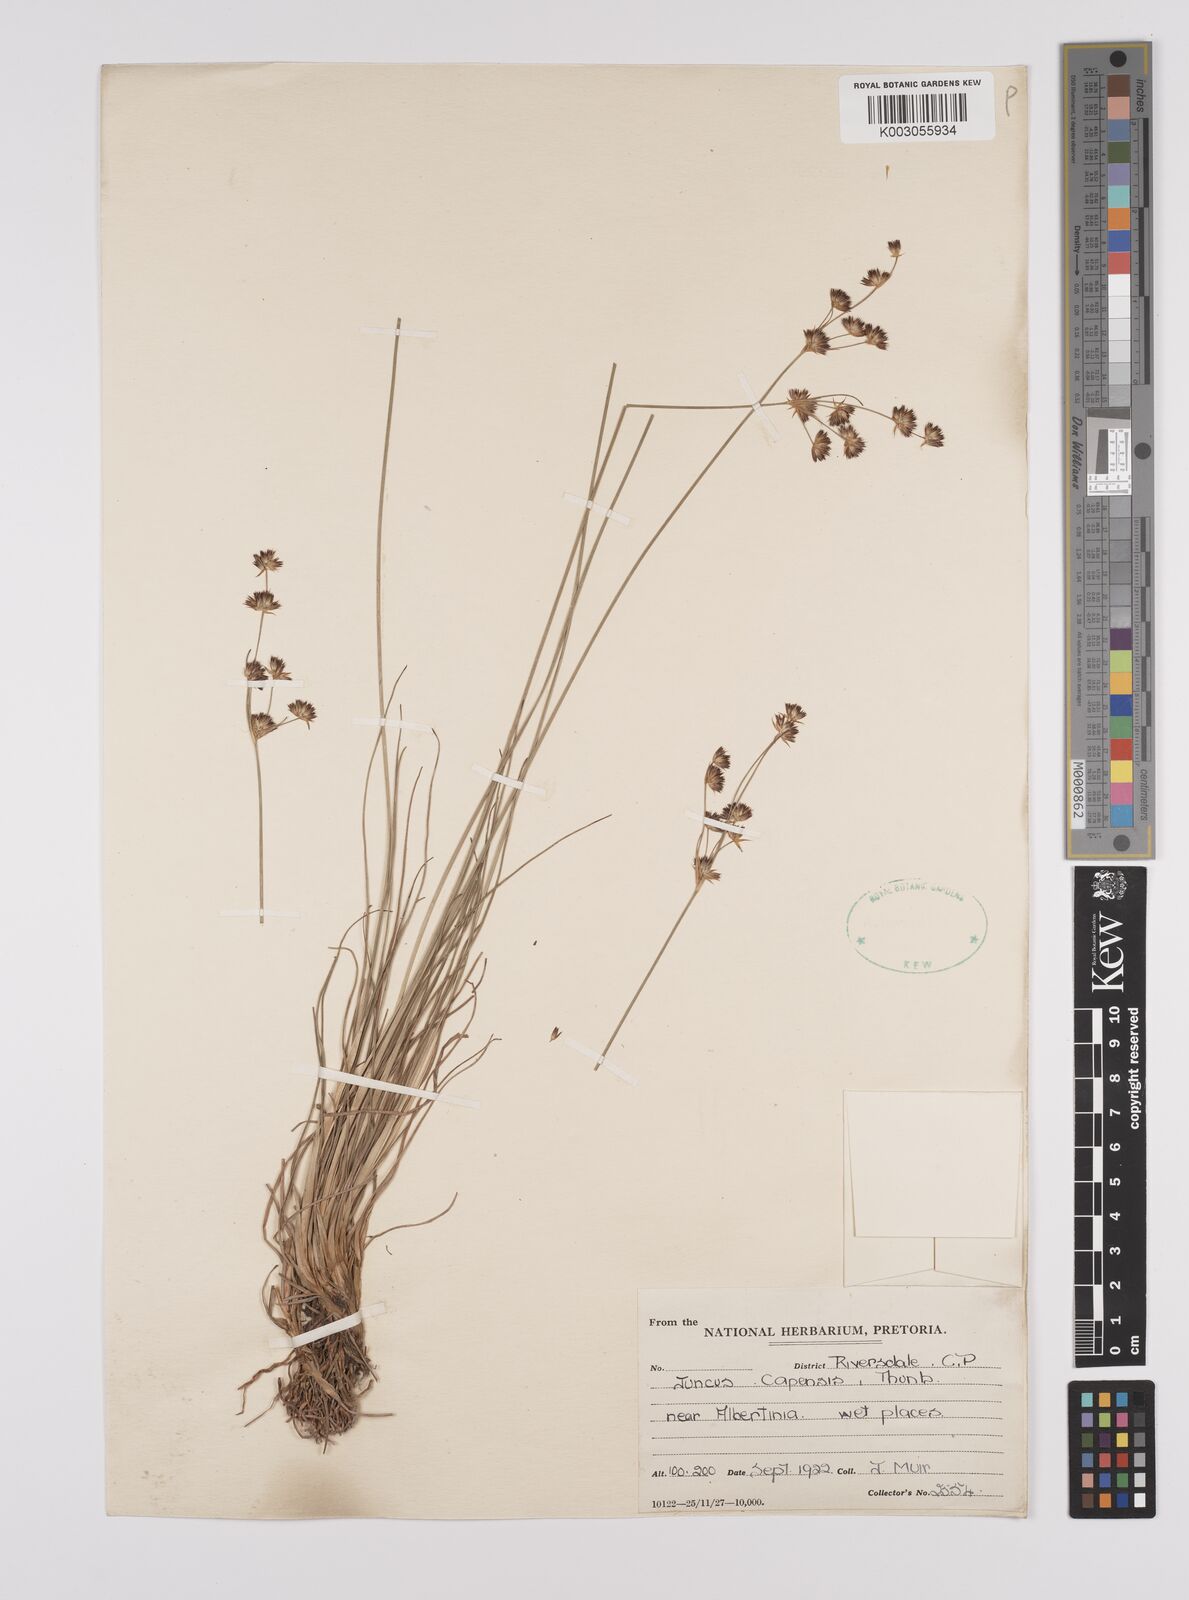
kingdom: Plantae
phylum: Tracheophyta
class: Liliopsida
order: Poales
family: Juncaceae
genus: Juncus
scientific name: Juncus capensis
